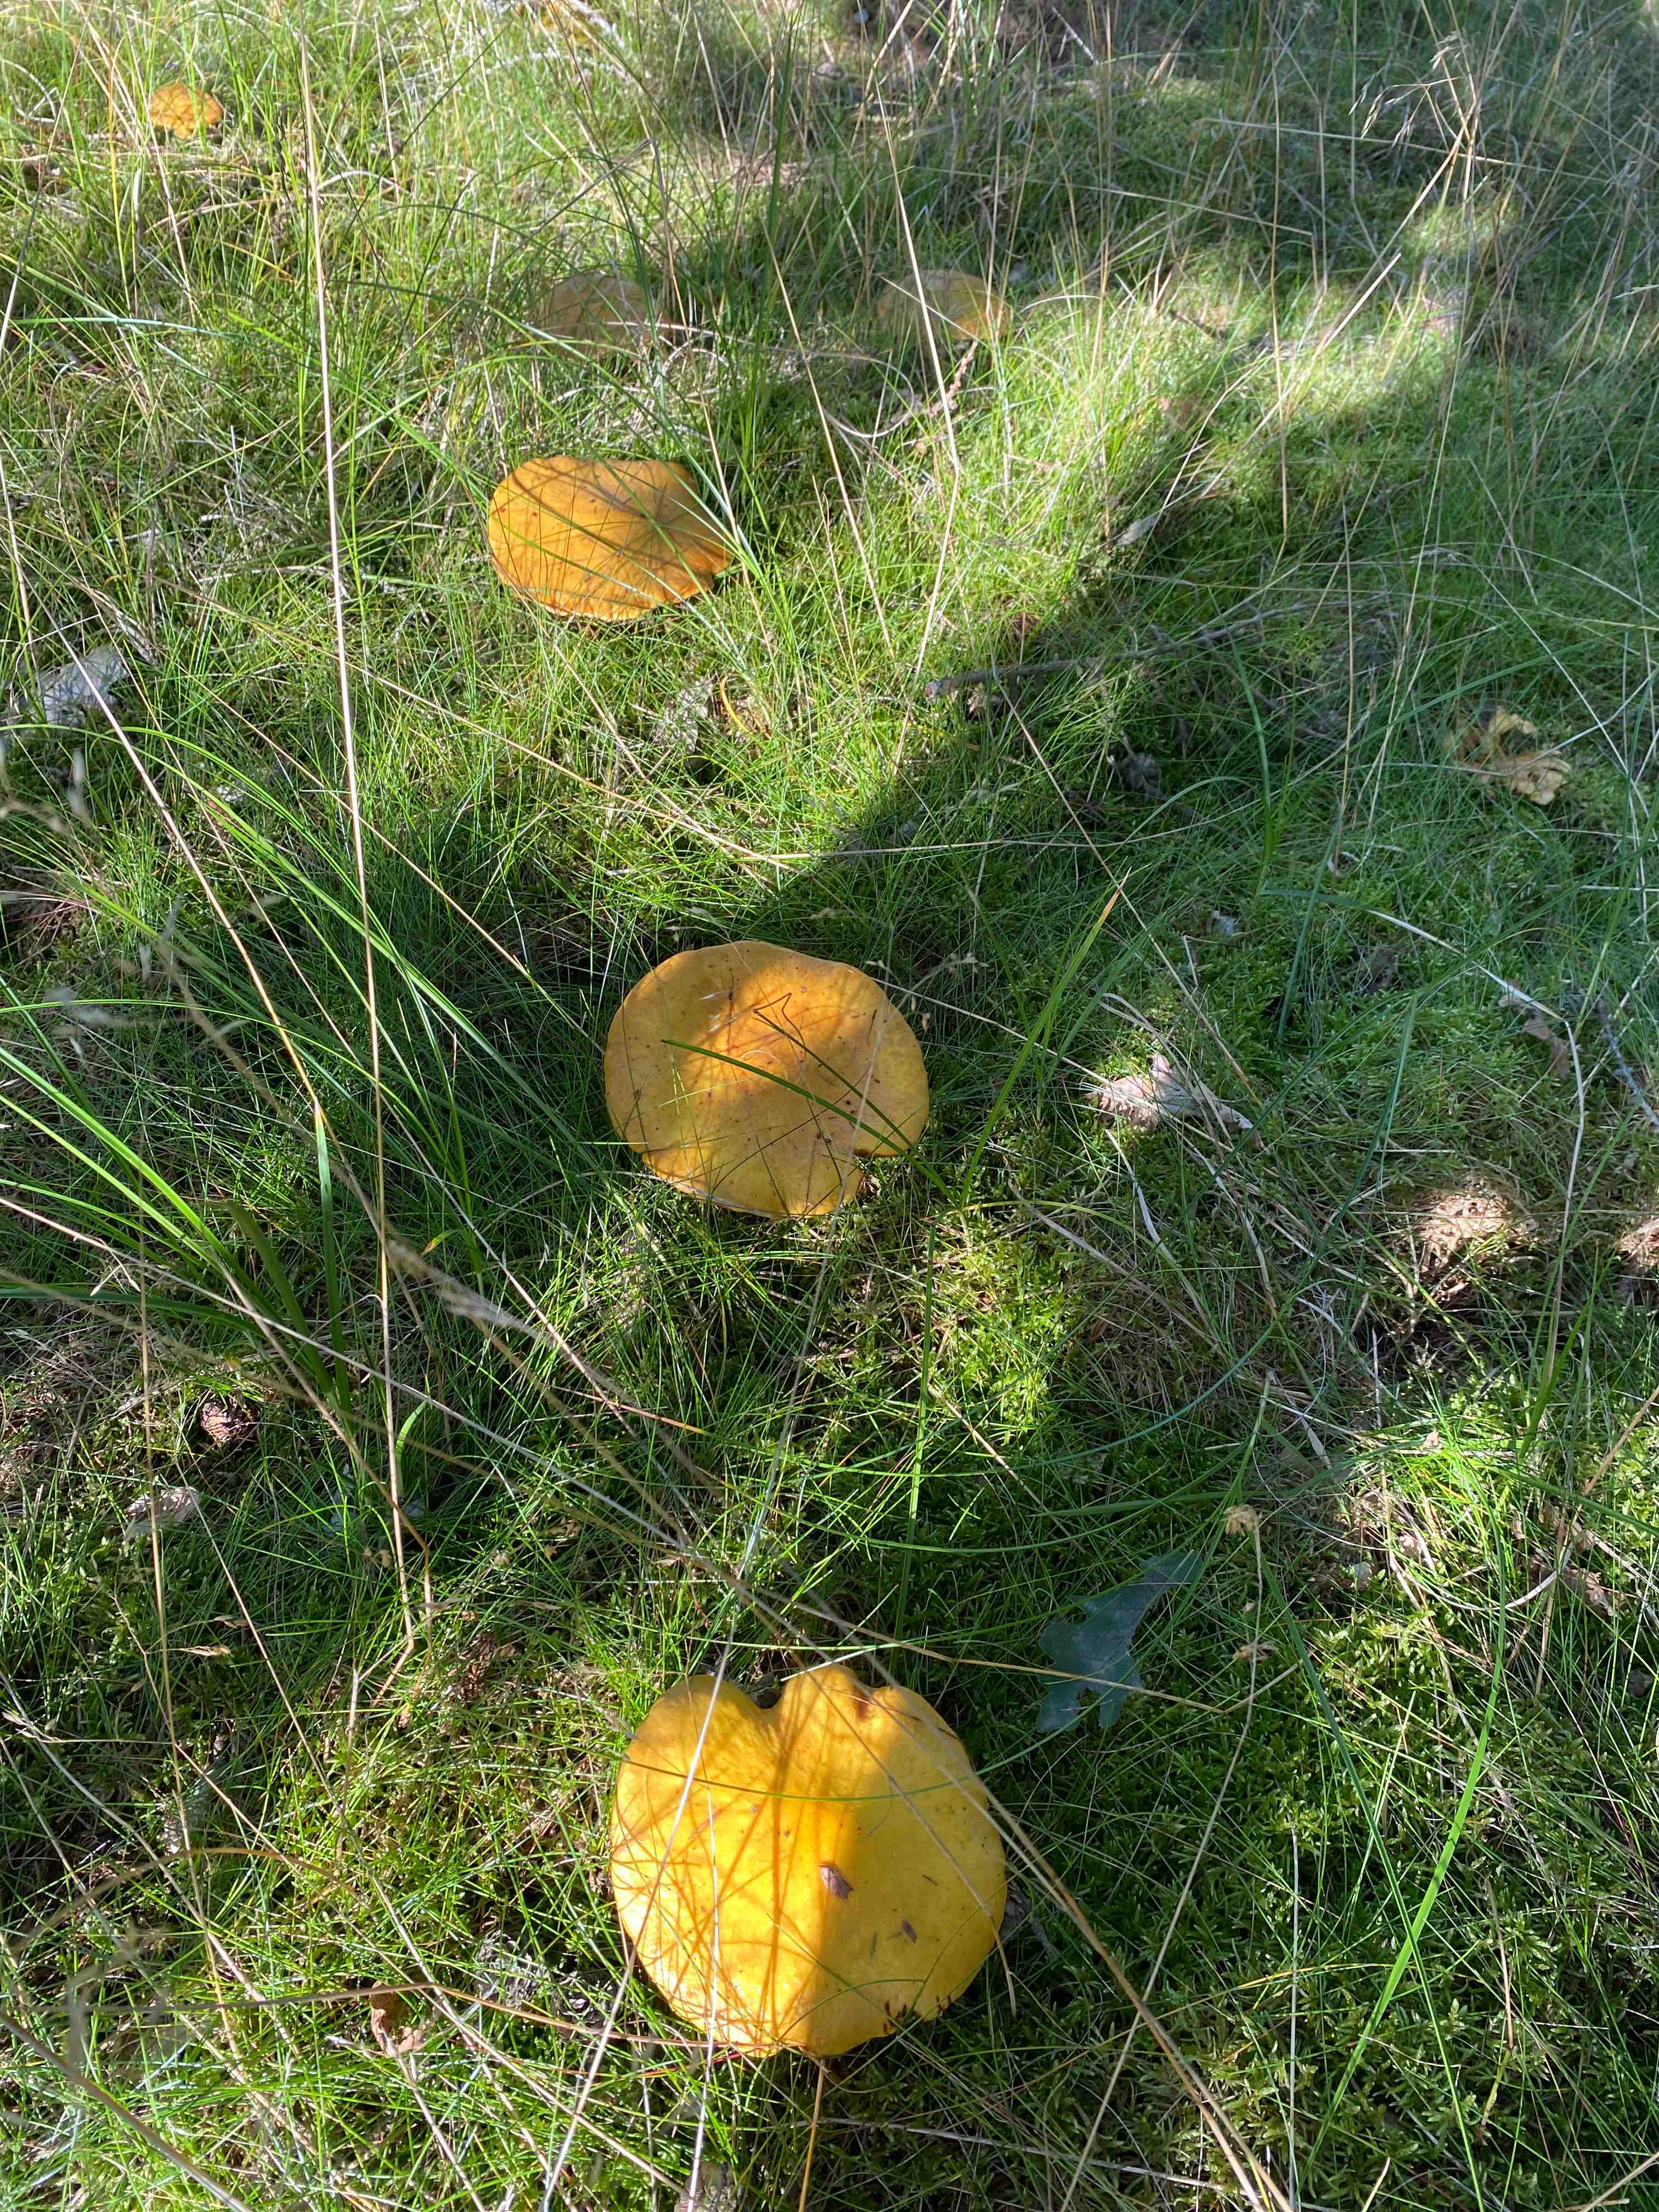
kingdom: Fungi
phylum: Basidiomycota
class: Agaricomycetes
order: Boletales
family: Suillaceae
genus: Suillus
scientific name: Suillus grevillei
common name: lærke-slimrørhat
